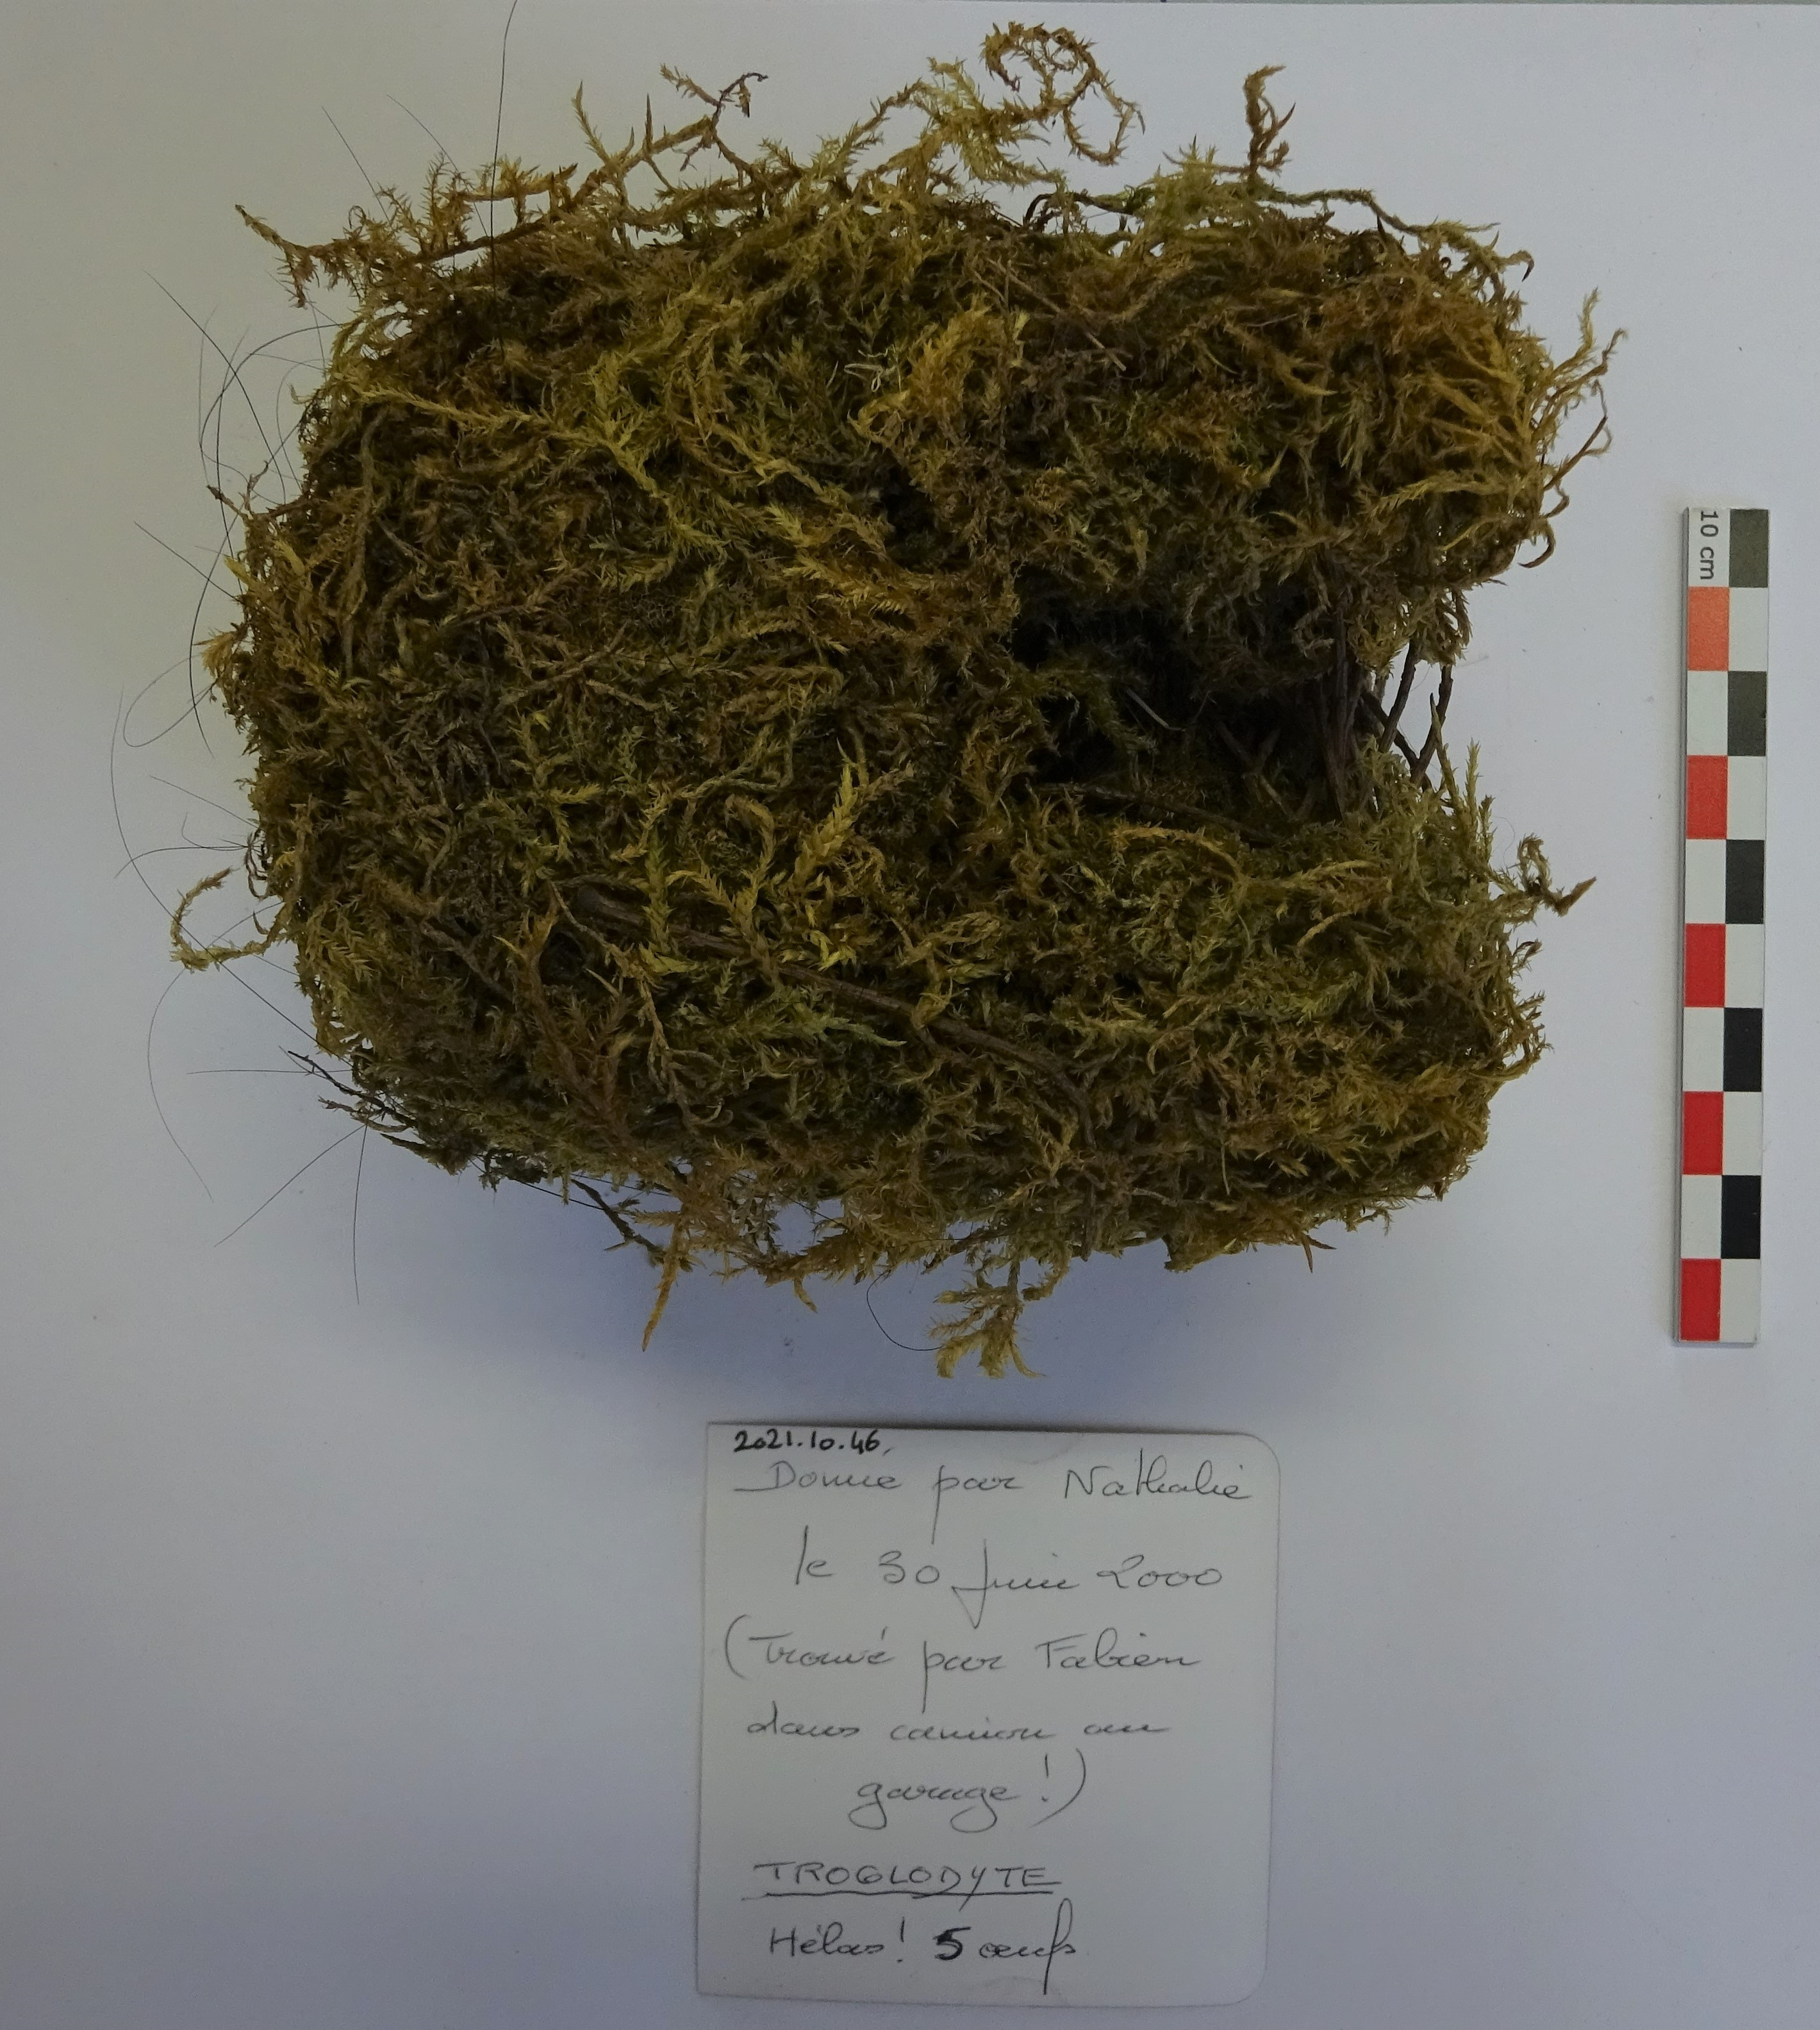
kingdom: Animalia
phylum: Chordata
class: Aves
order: Passeriformes
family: Troglodytidae
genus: Troglodytes
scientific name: Troglodytes troglodytes
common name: Eurasian wren
